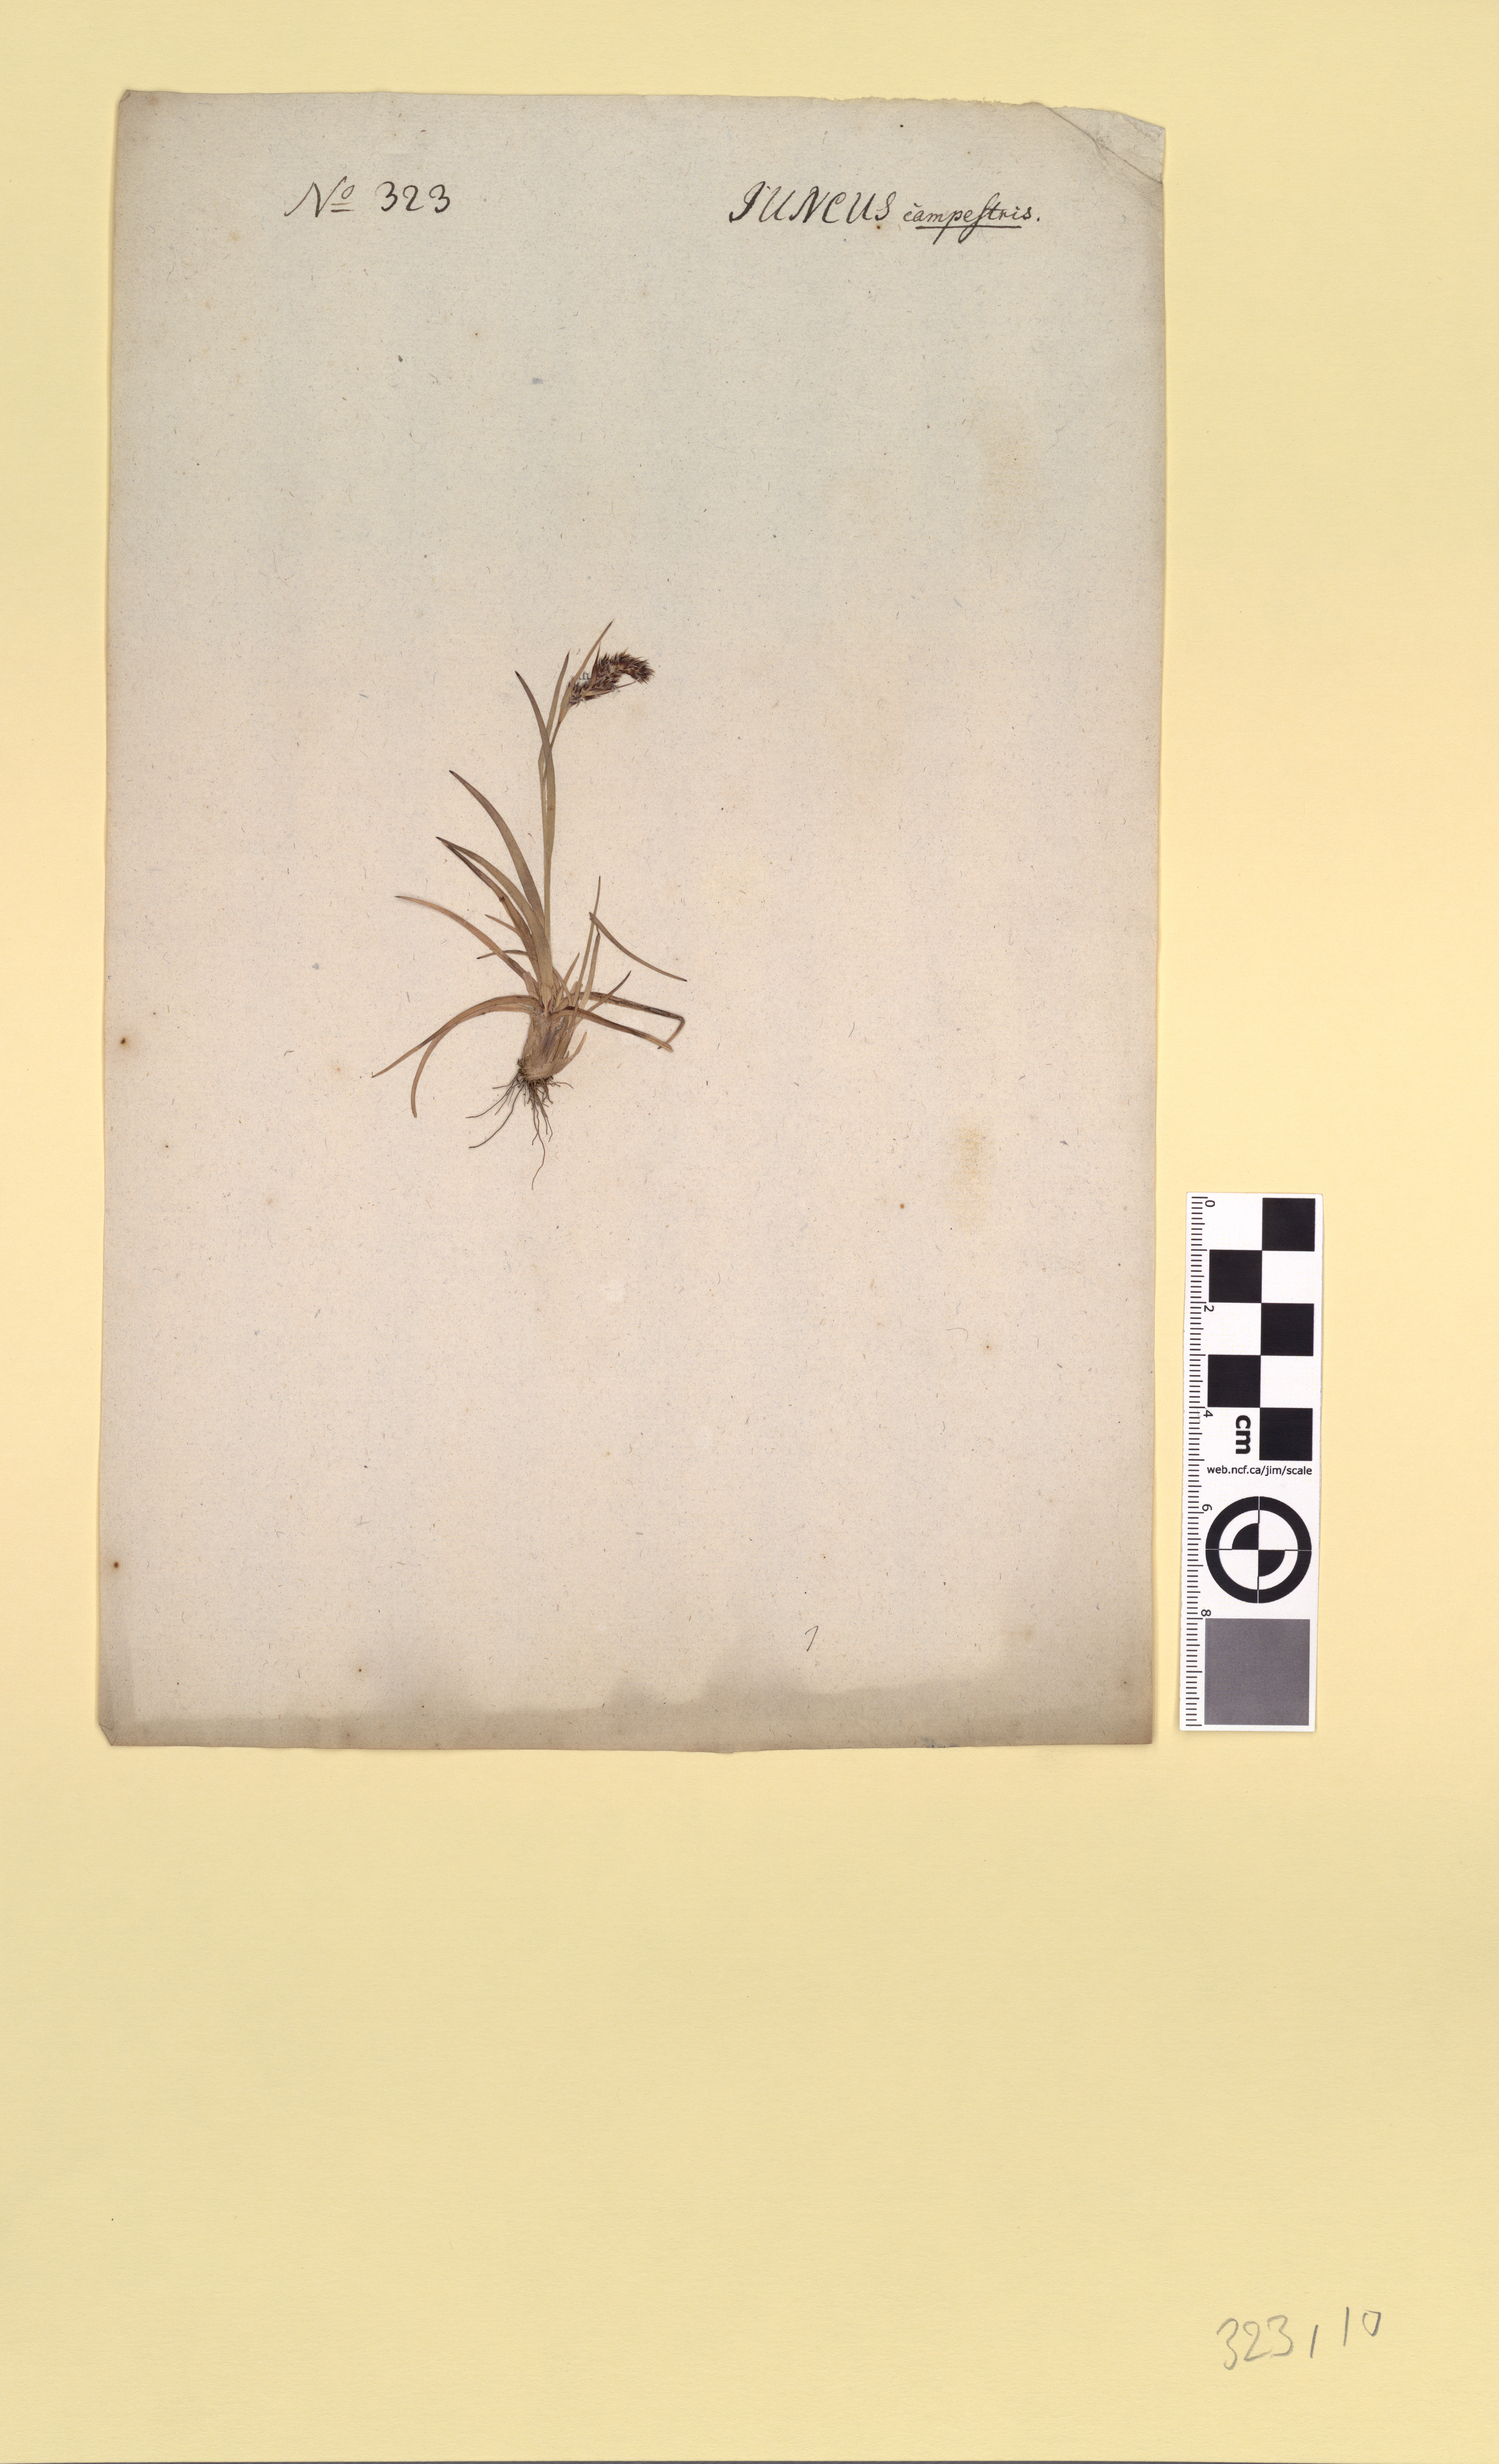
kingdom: Plantae
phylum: Tracheophyta
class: Liliopsida
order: Poales
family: Juncaceae
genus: Luzula
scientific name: Luzula spicata
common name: Spiked wood-rush
